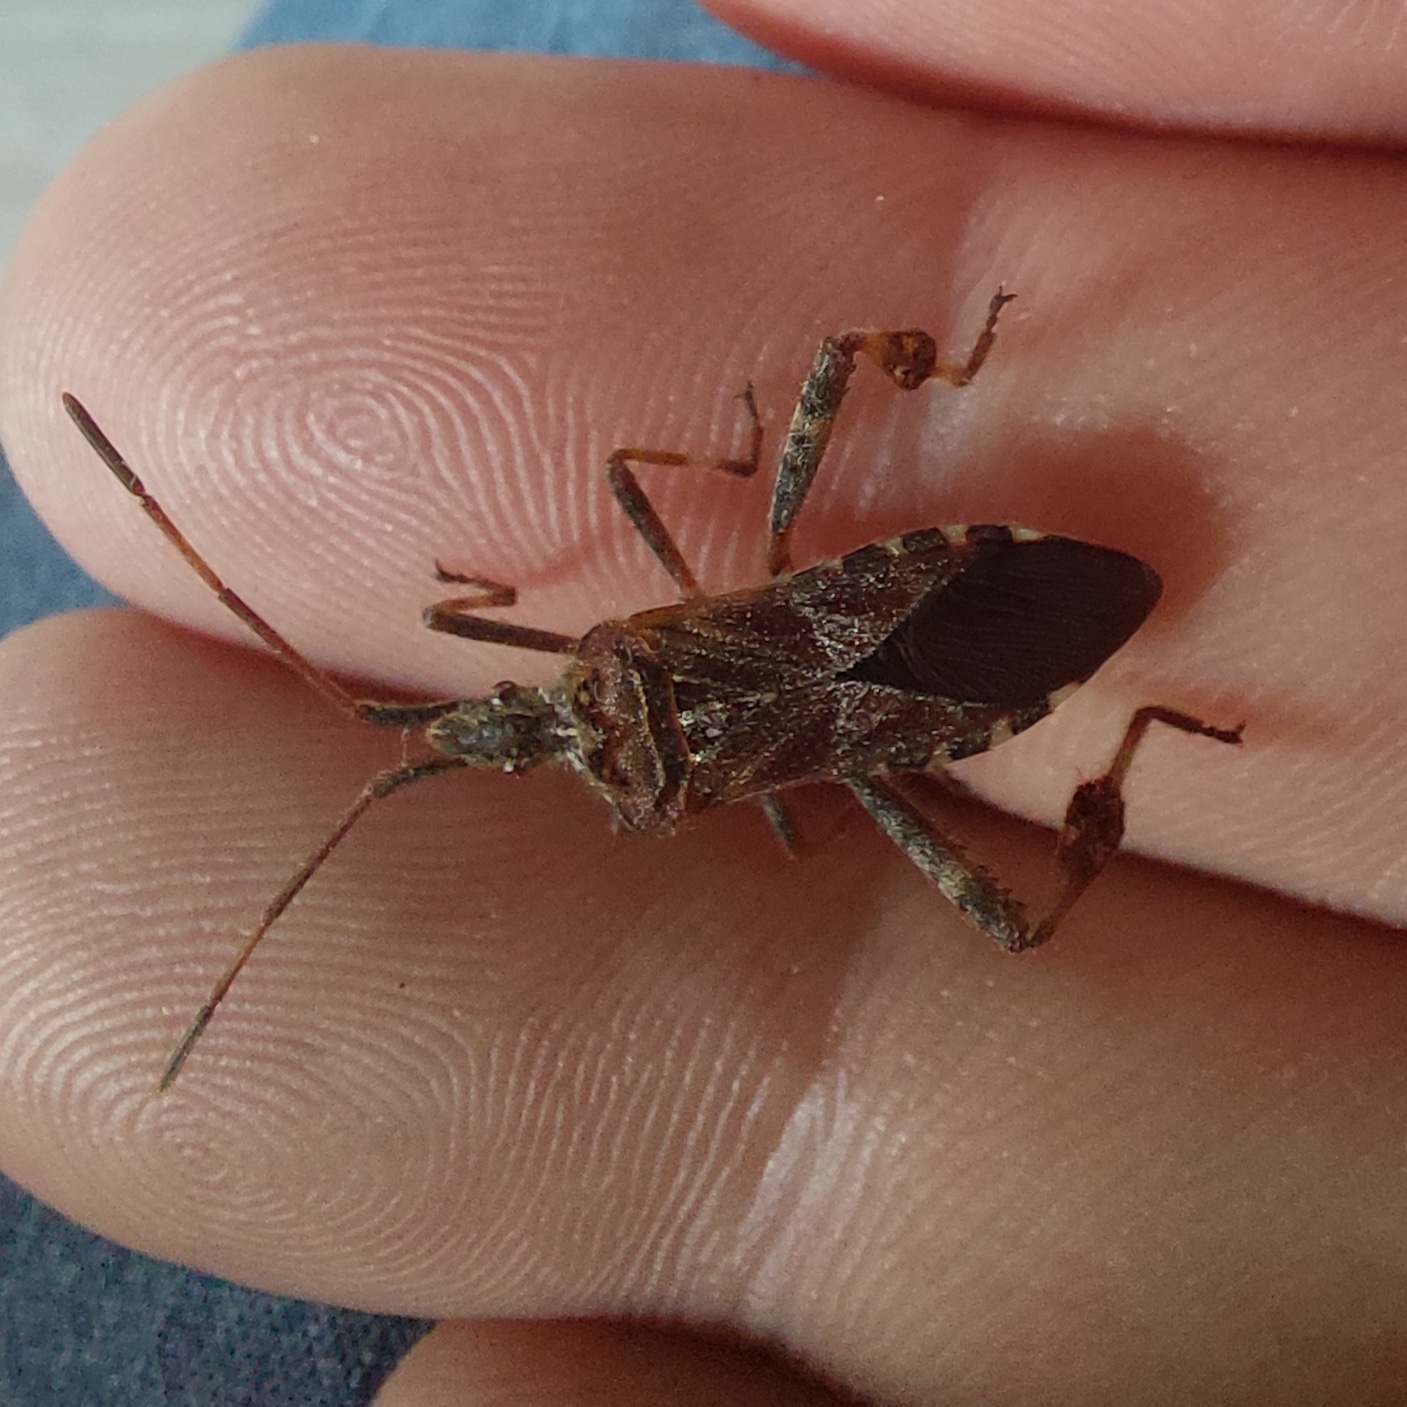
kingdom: Animalia
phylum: Arthropoda
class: Insecta
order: Hemiptera
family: Coreidae
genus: Leptoglossus
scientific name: Leptoglossus occidentalis
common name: Amerikansk fyrretæge
